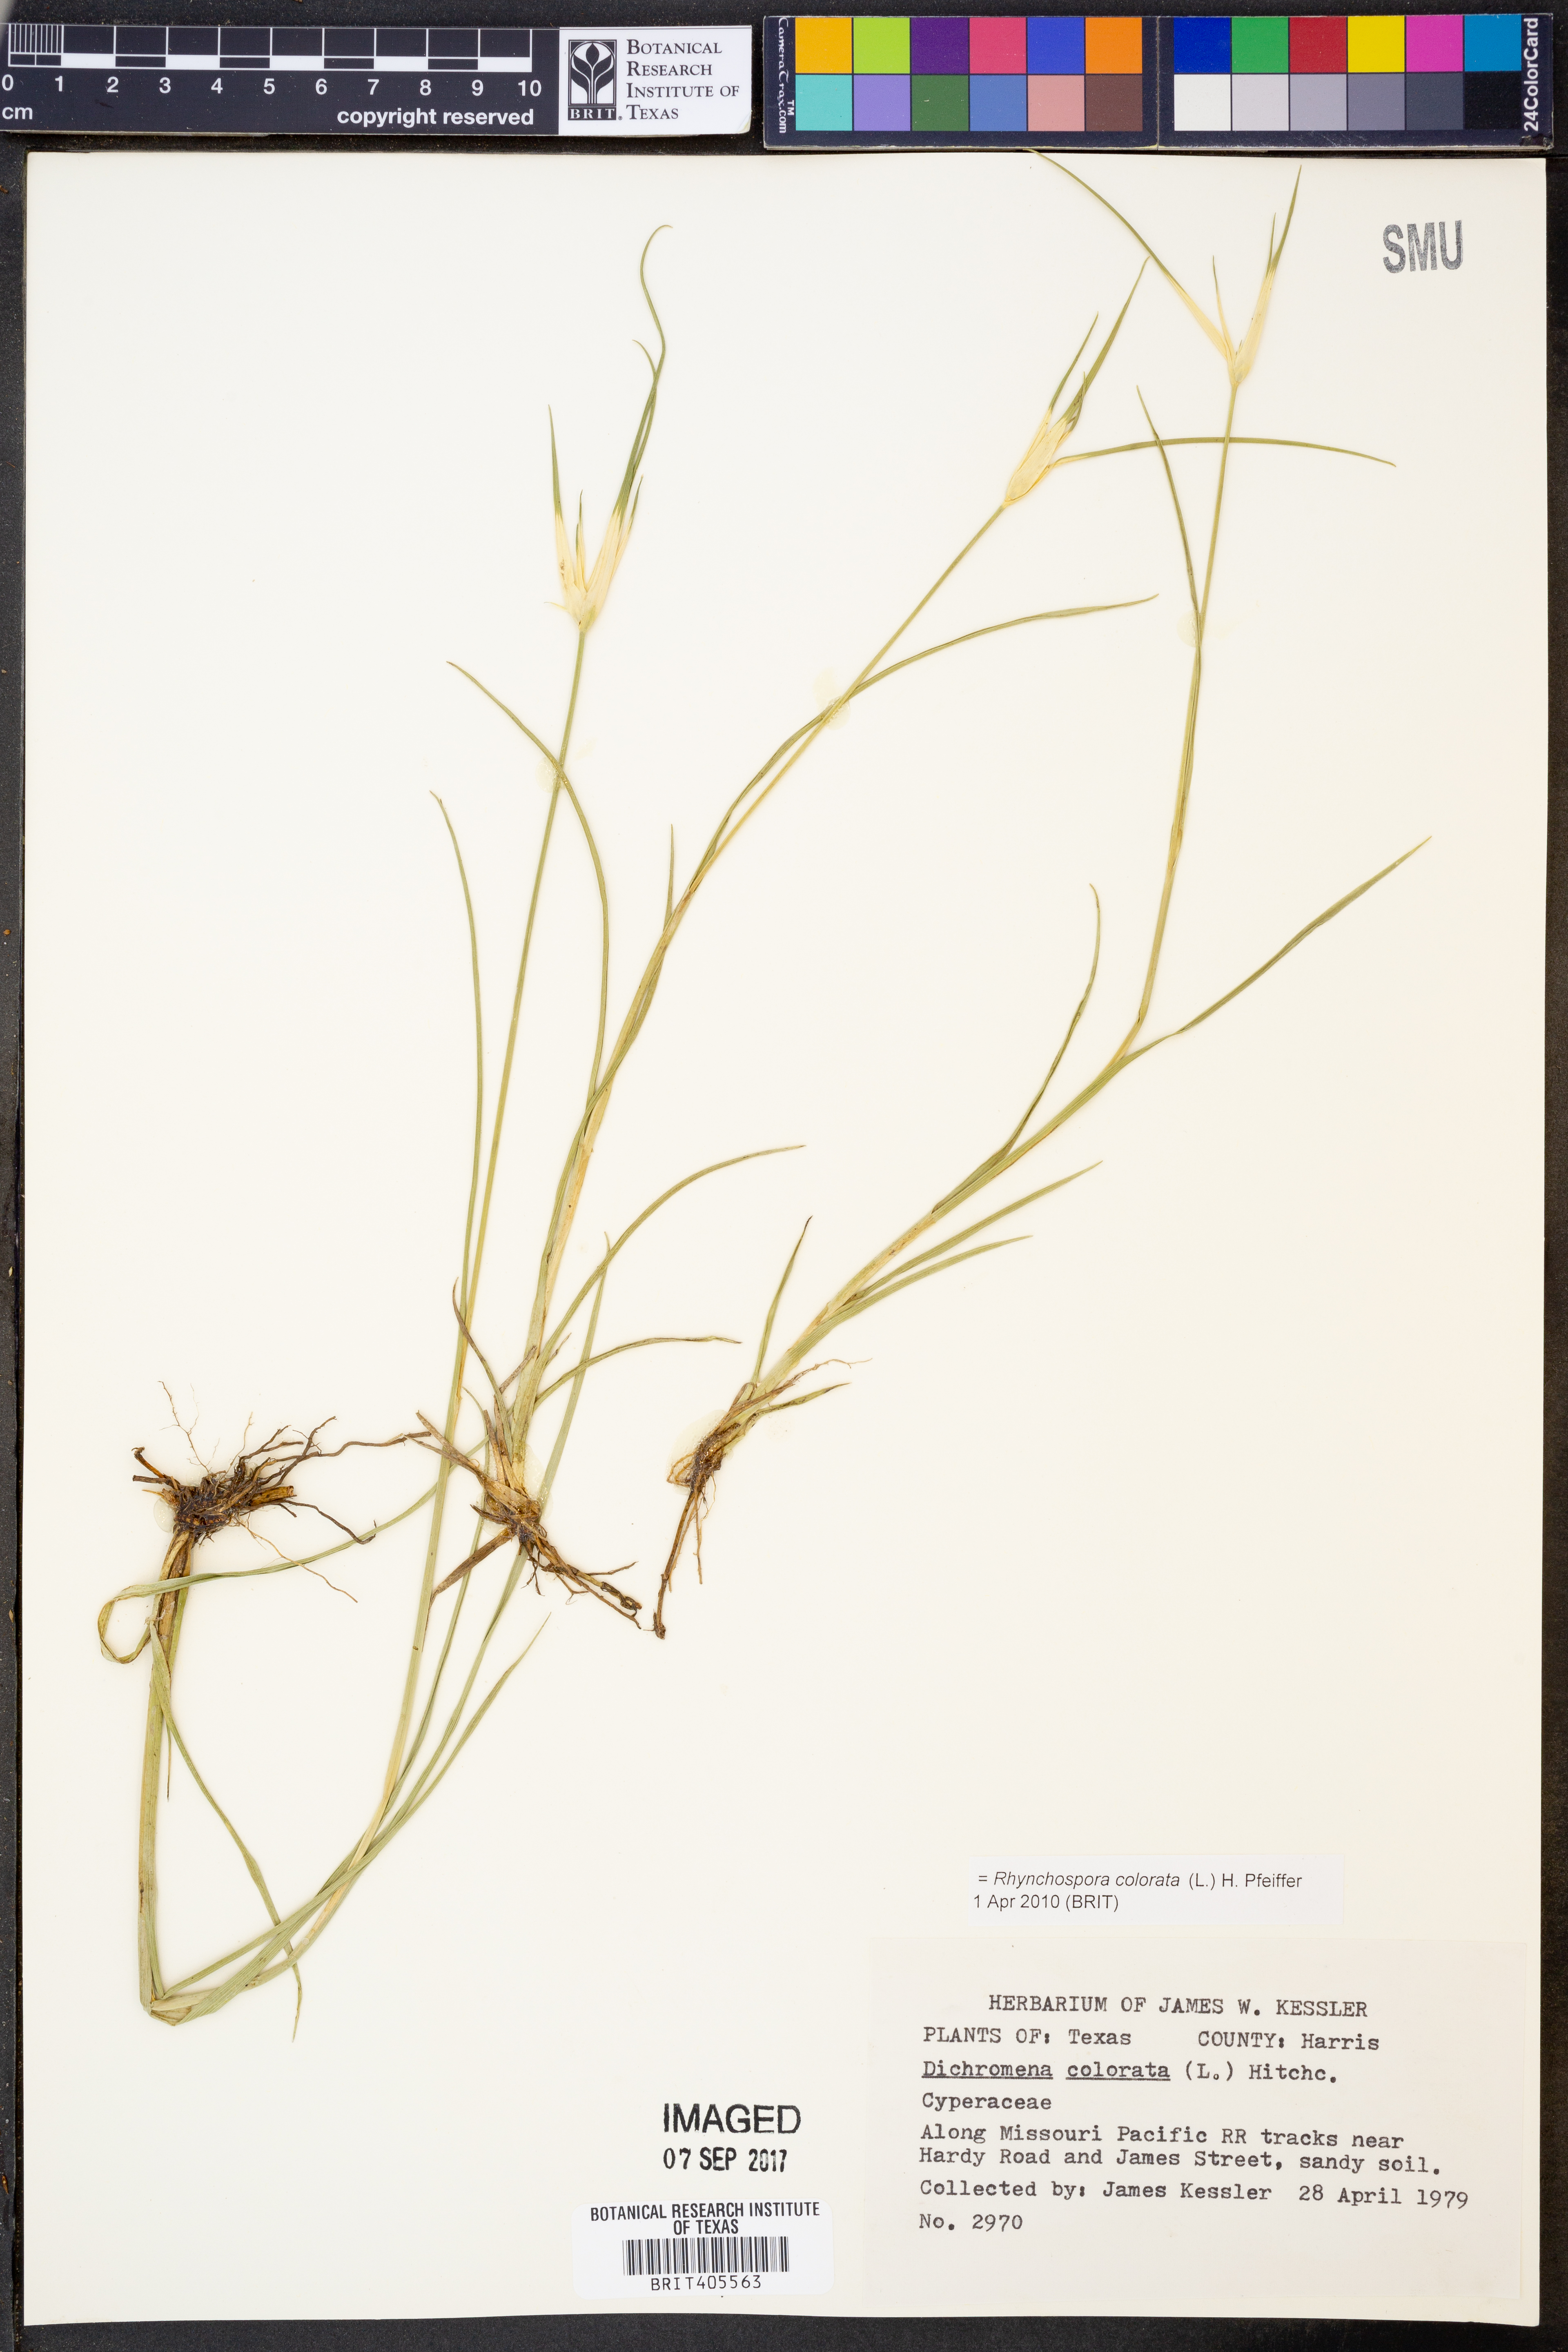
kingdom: Plantae
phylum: Tracheophyta
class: Liliopsida
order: Poales
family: Cyperaceae
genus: Rhynchospora
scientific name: Rhynchospora colorata
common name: Star sedge
